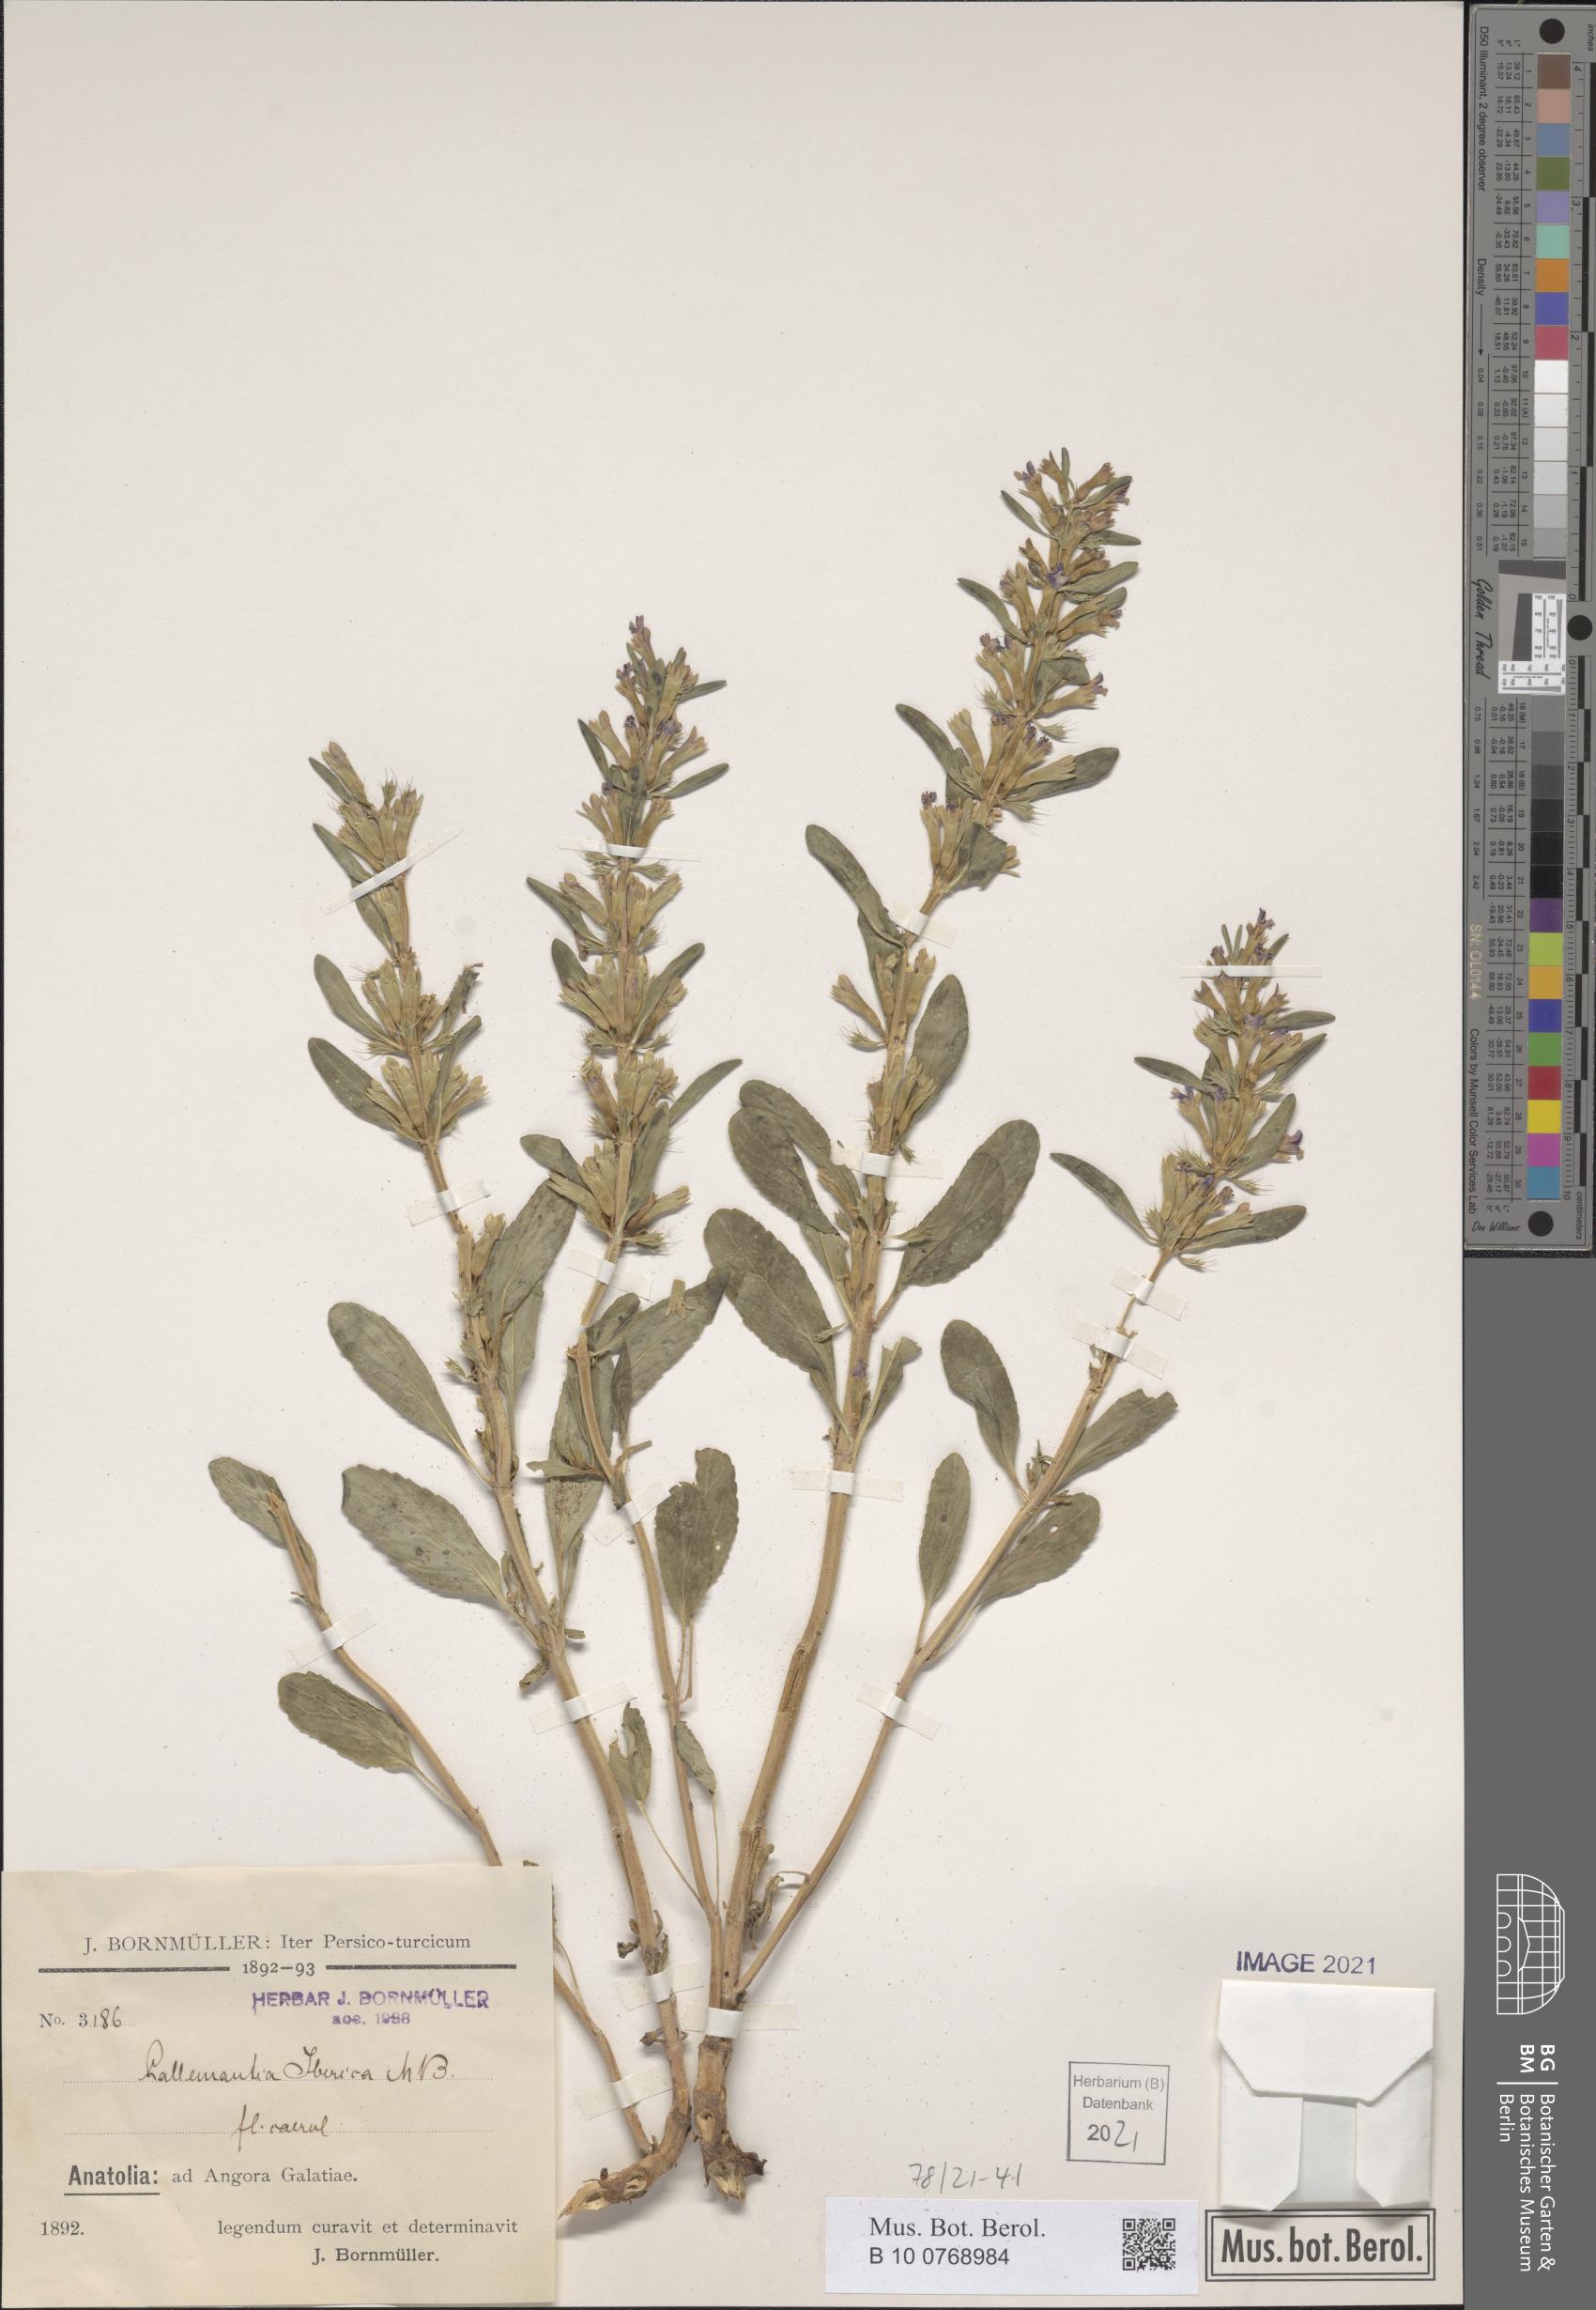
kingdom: Plantae
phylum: Tracheophyta
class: Magnoliopsida
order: Lamiales
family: Lamiaceae
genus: Lallemantia
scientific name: Lallemantia iberica
